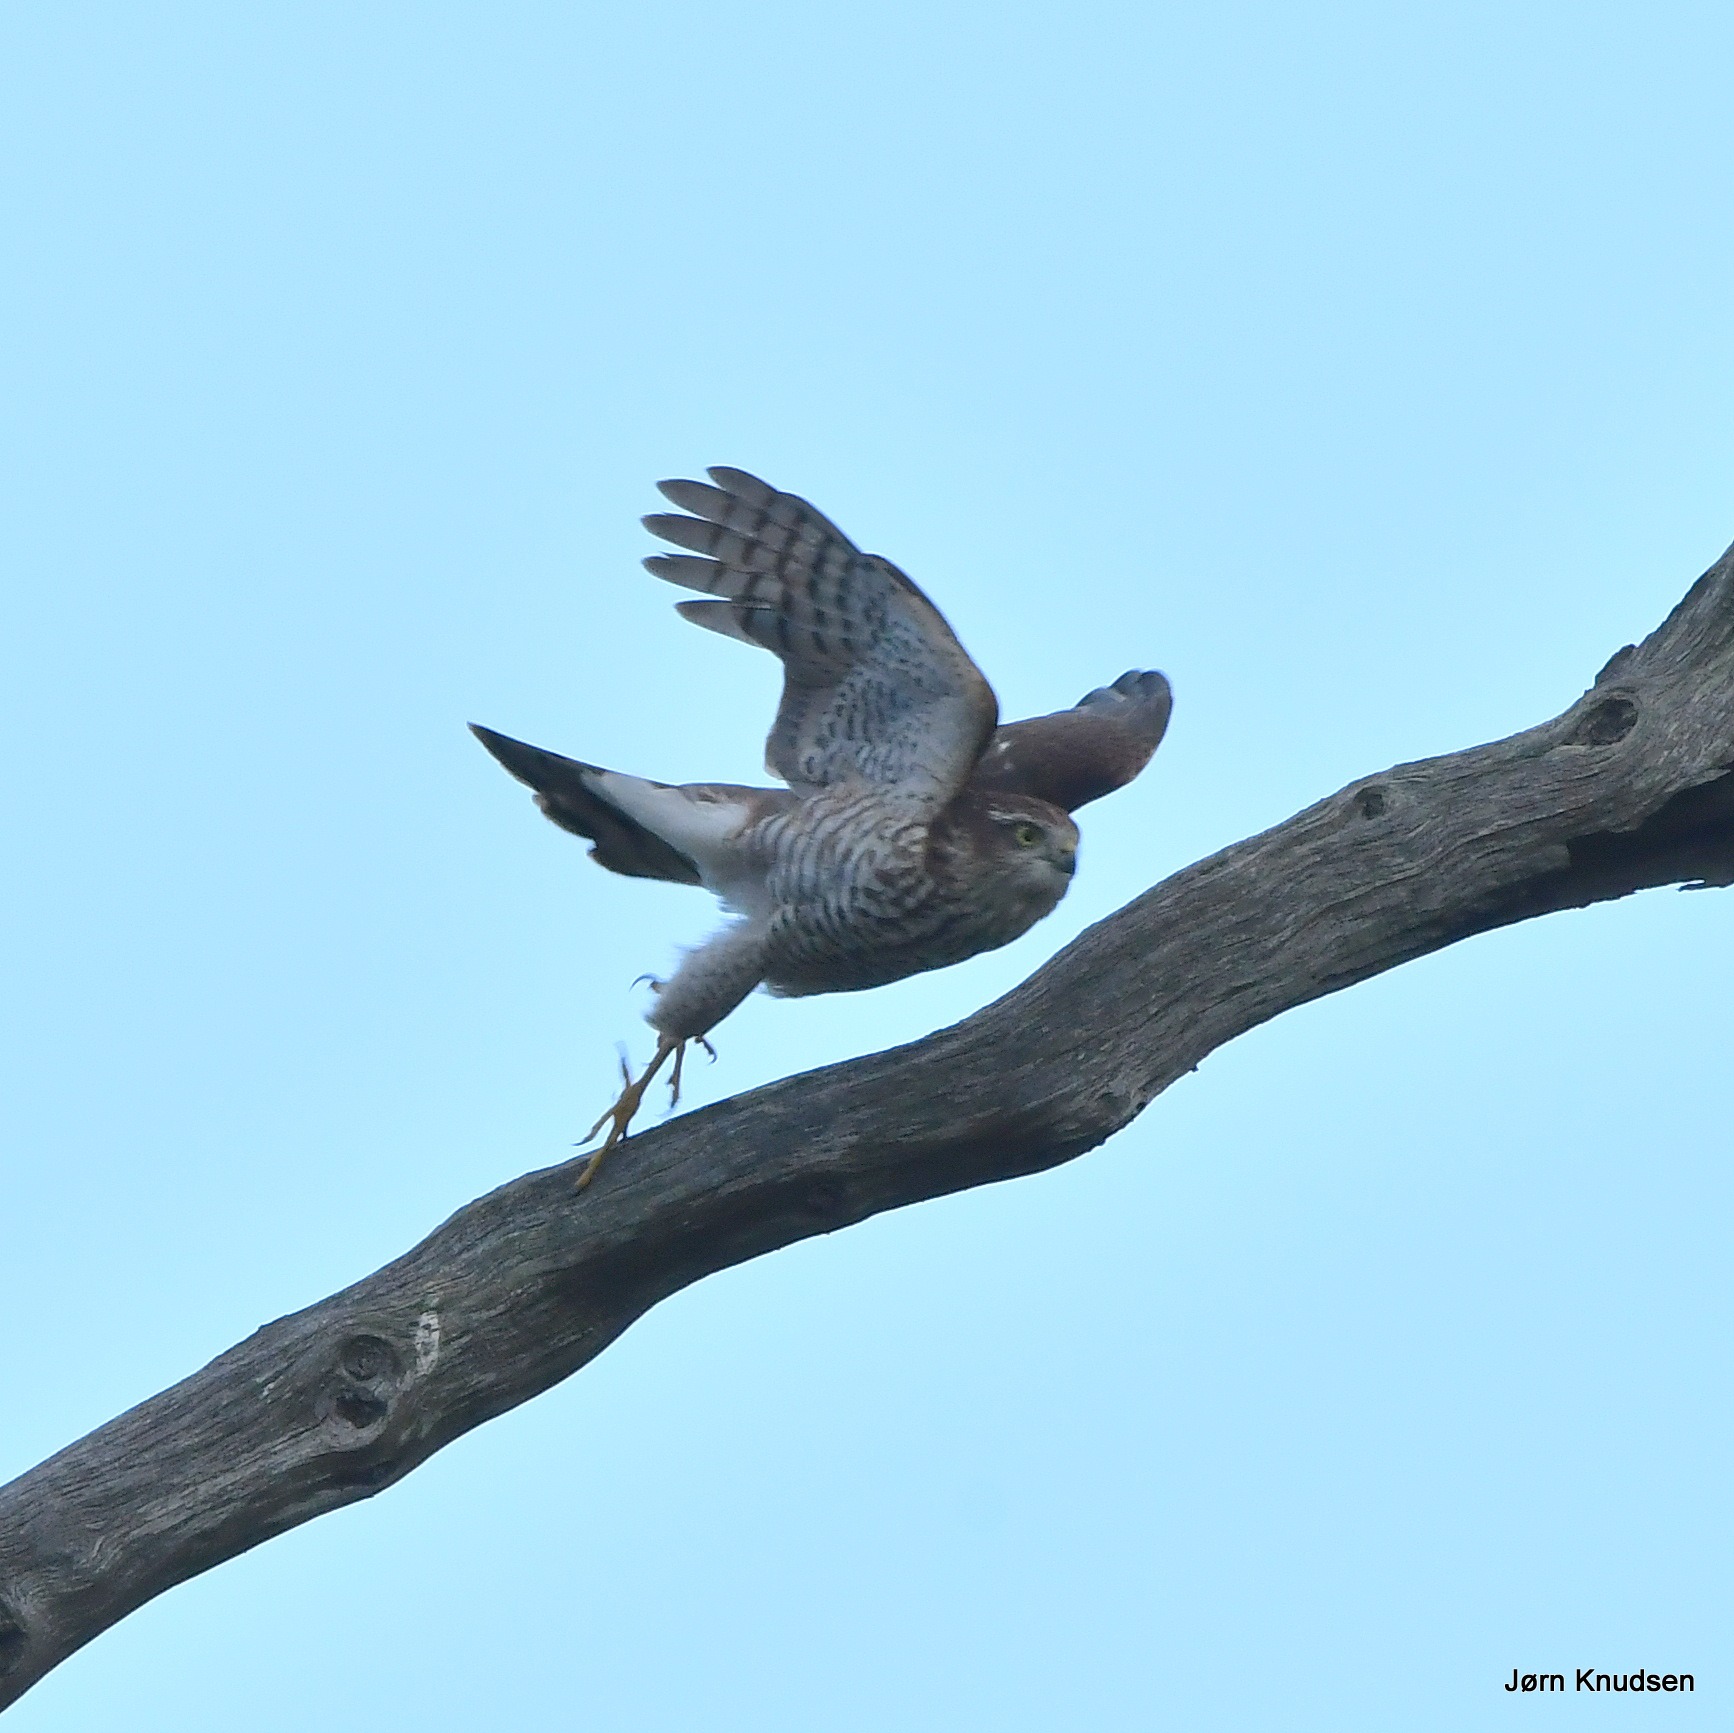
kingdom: Animalia
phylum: Chordata
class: Aves
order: Accipitriformes
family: Accipitridae
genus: Accipiter
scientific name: Accipiter nisus
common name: Spurvehøg
